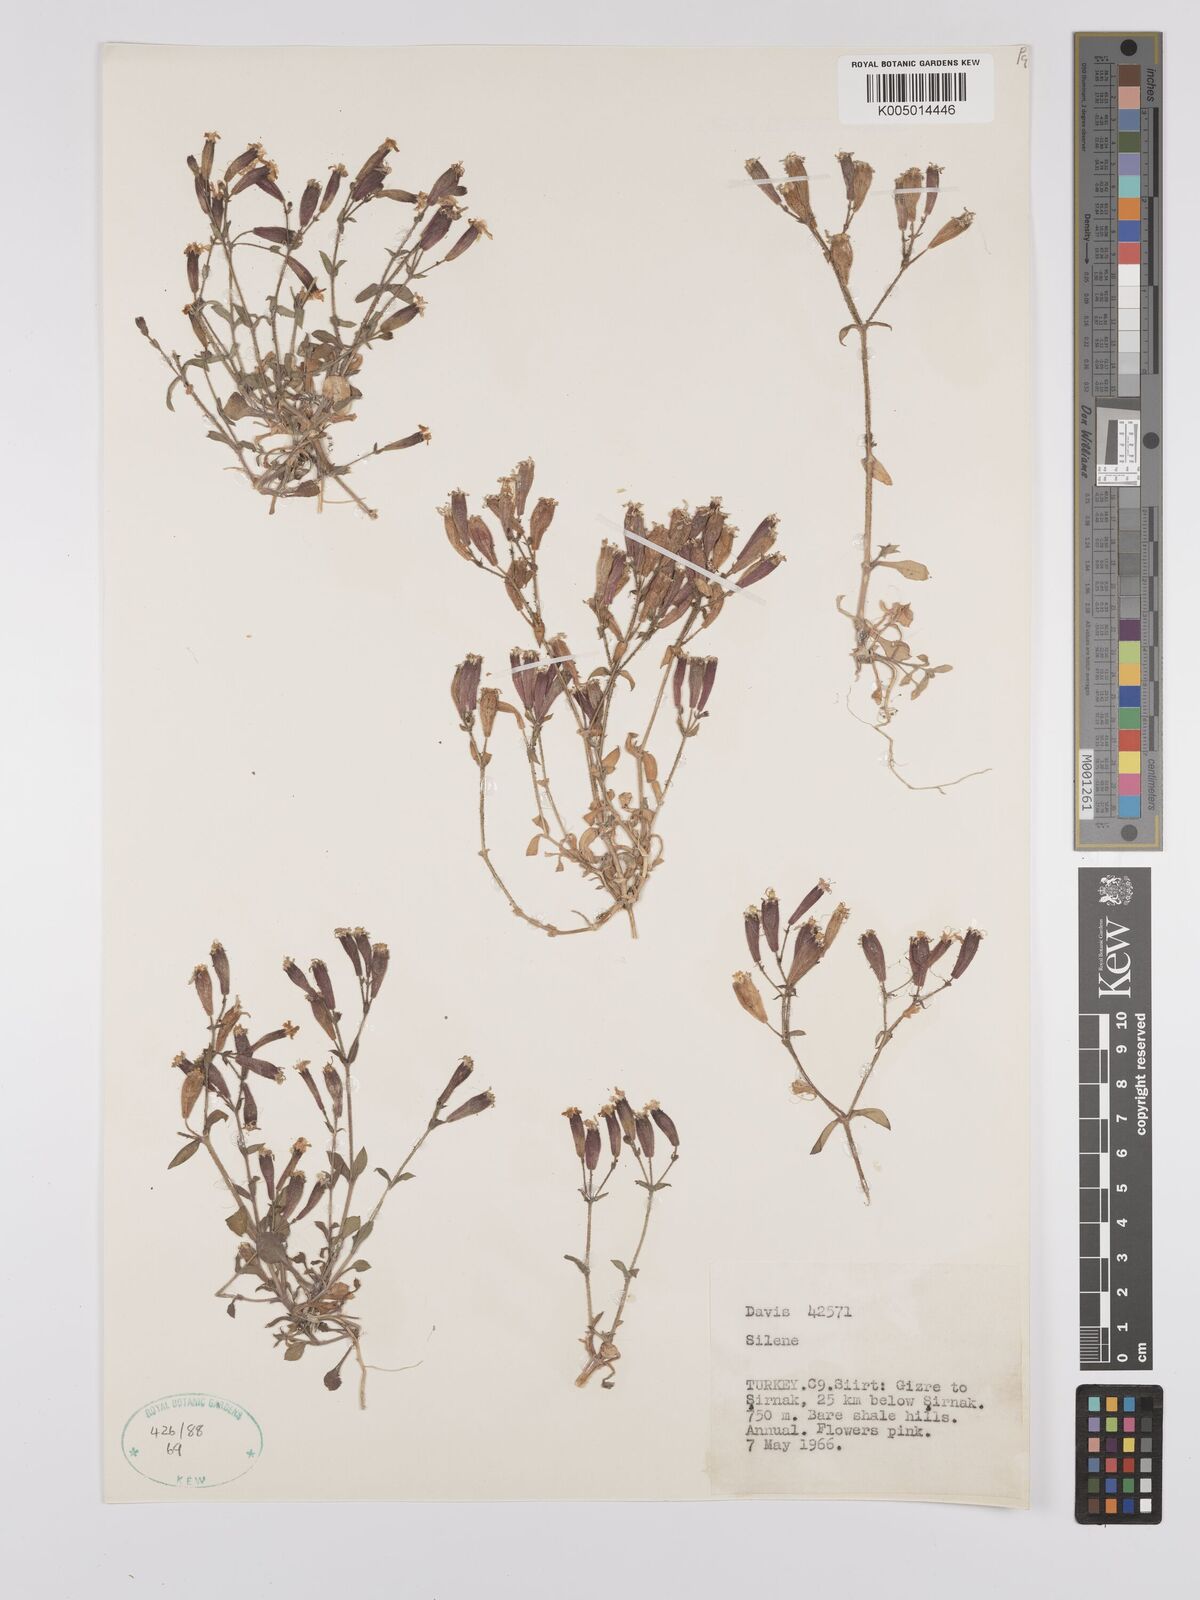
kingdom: Plantae
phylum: Tracheophyta
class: Magnoliopsida
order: Caryophyllales
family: Caryophyllaceae
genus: Silene
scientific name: Silene
